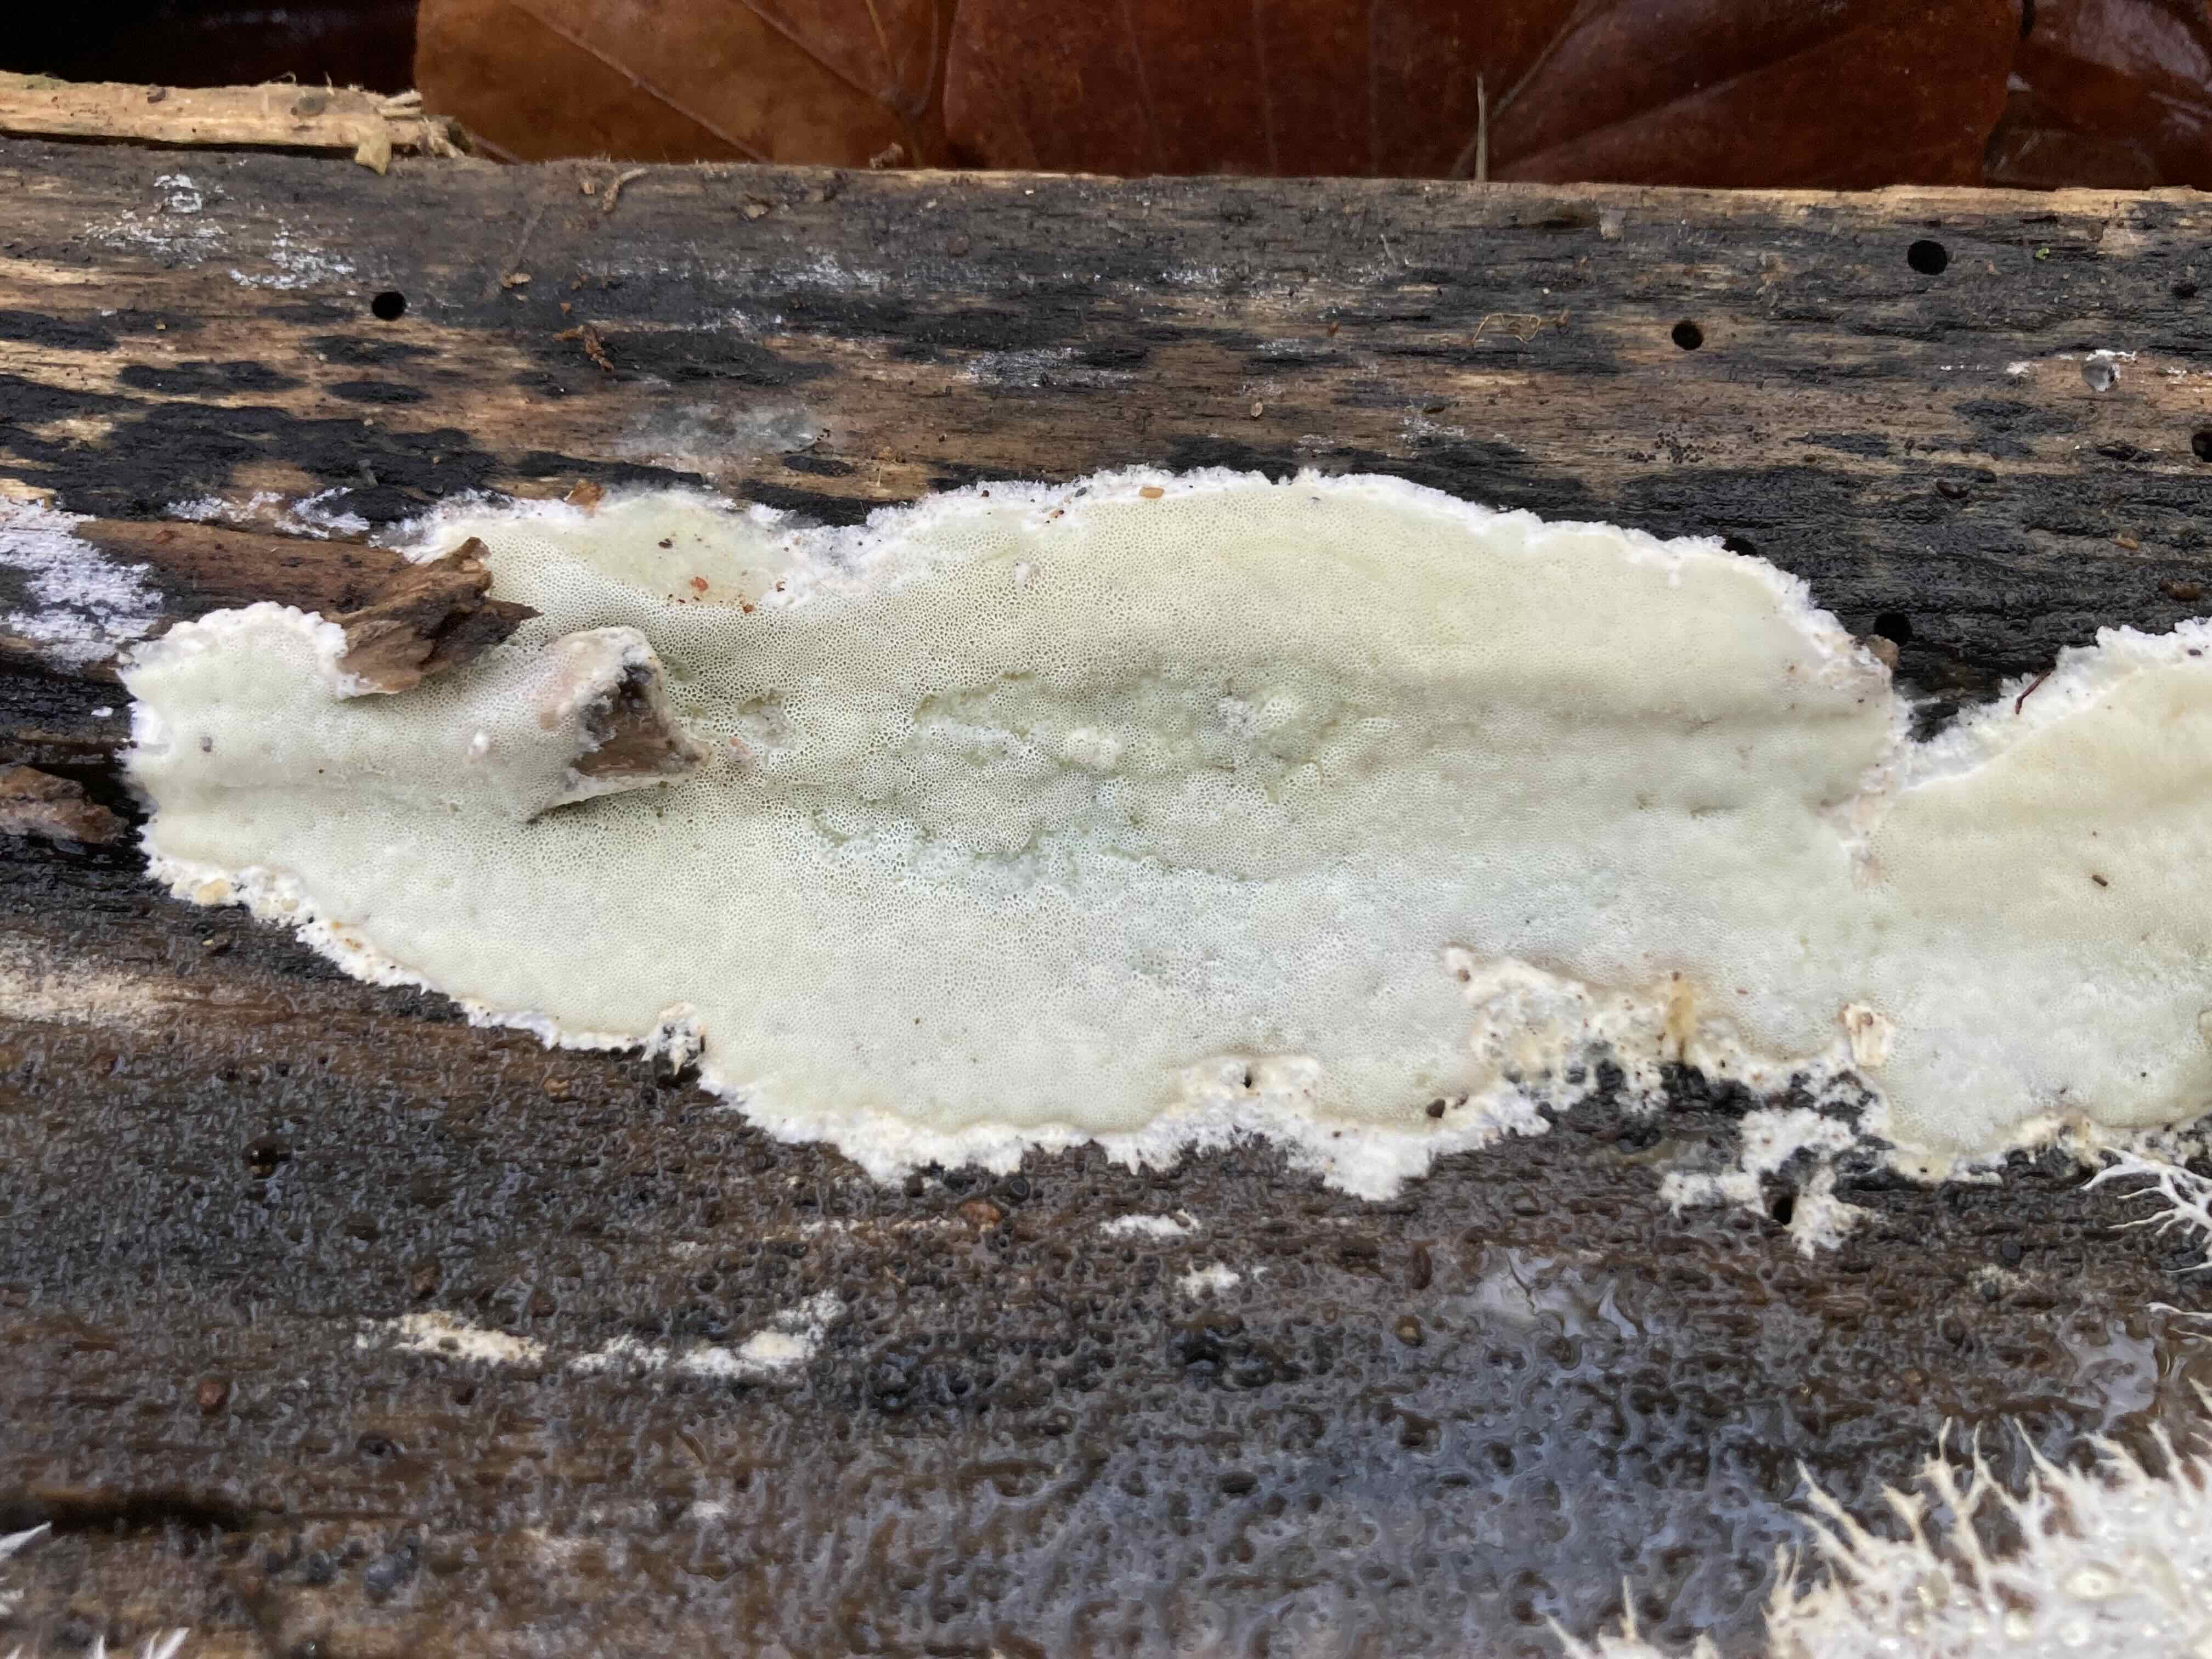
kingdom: Fungi
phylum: Basidiomycota
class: Agaricomycetes
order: Polyporales
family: Irpicaceae
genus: Gloeoporus
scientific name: Gloeoporus pannocinctus
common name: grøngul foldporesvamp
